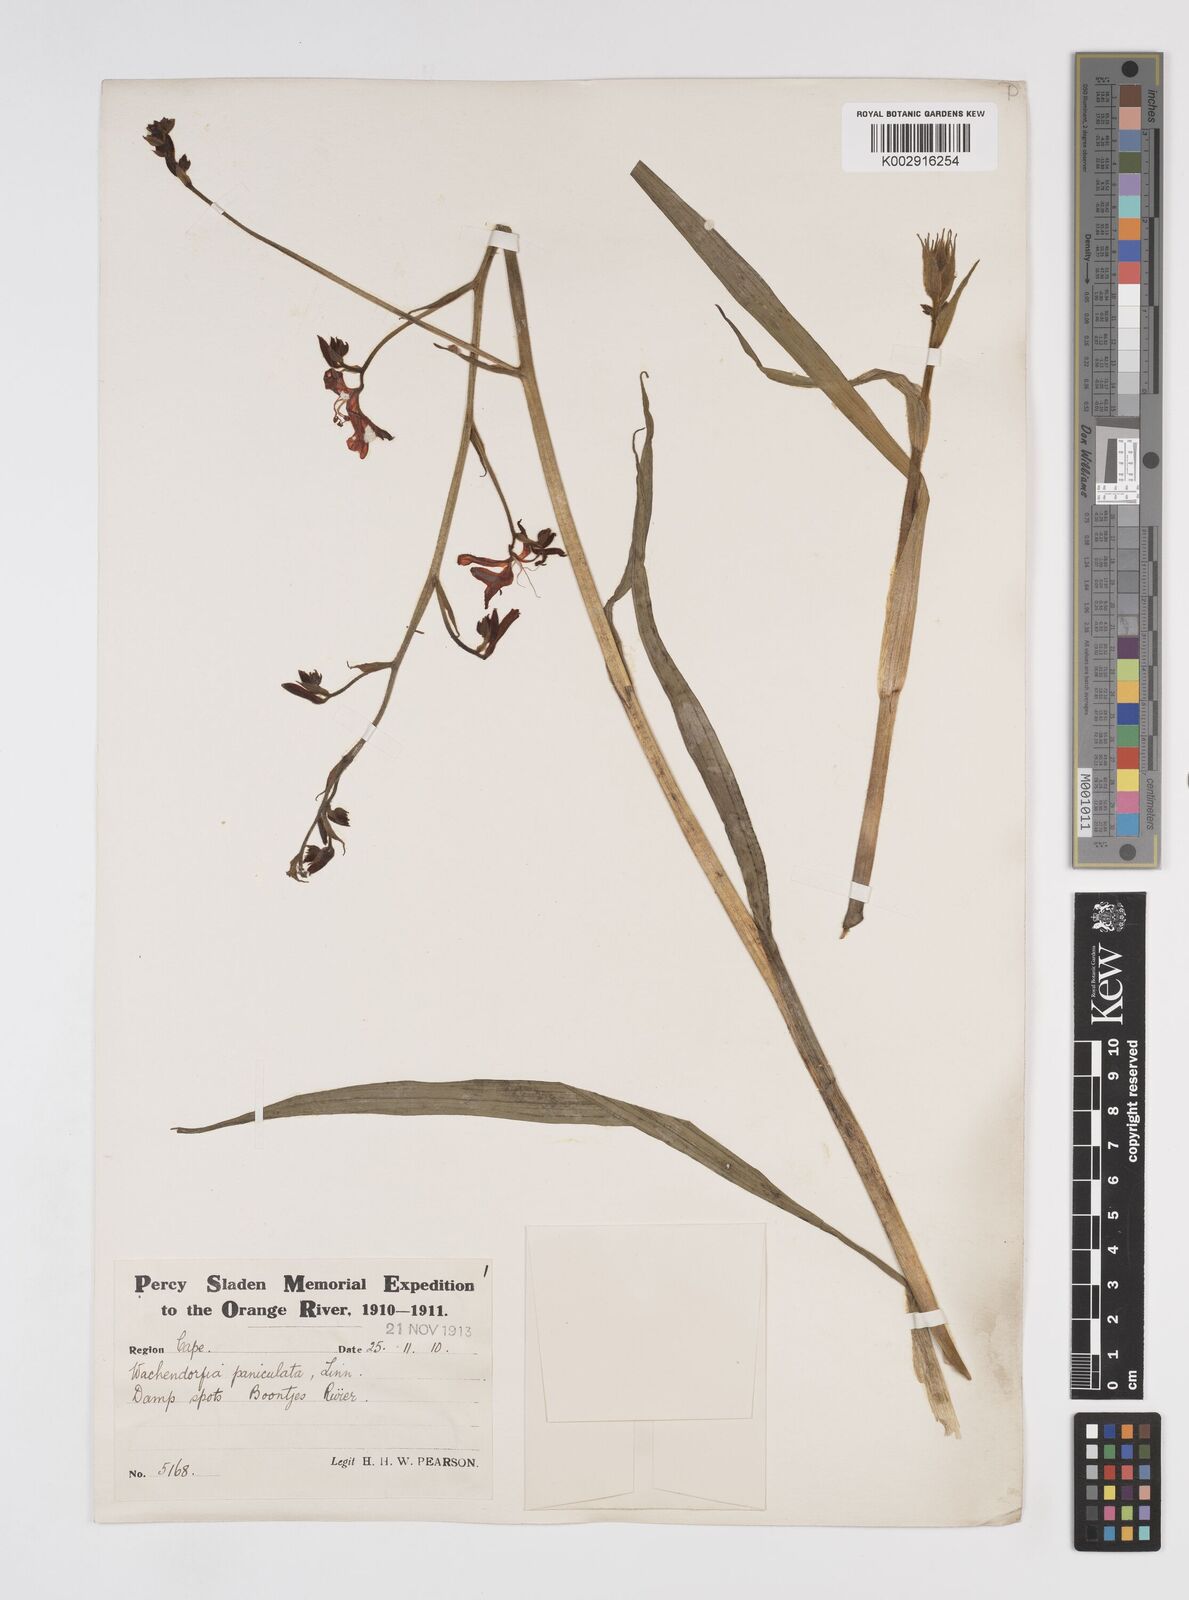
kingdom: Plantae
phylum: Tracheophyta
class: Liliopsida
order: Commelinales
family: Haemodoraceae
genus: Wachendorfia
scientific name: Wachendorfia paniculata
